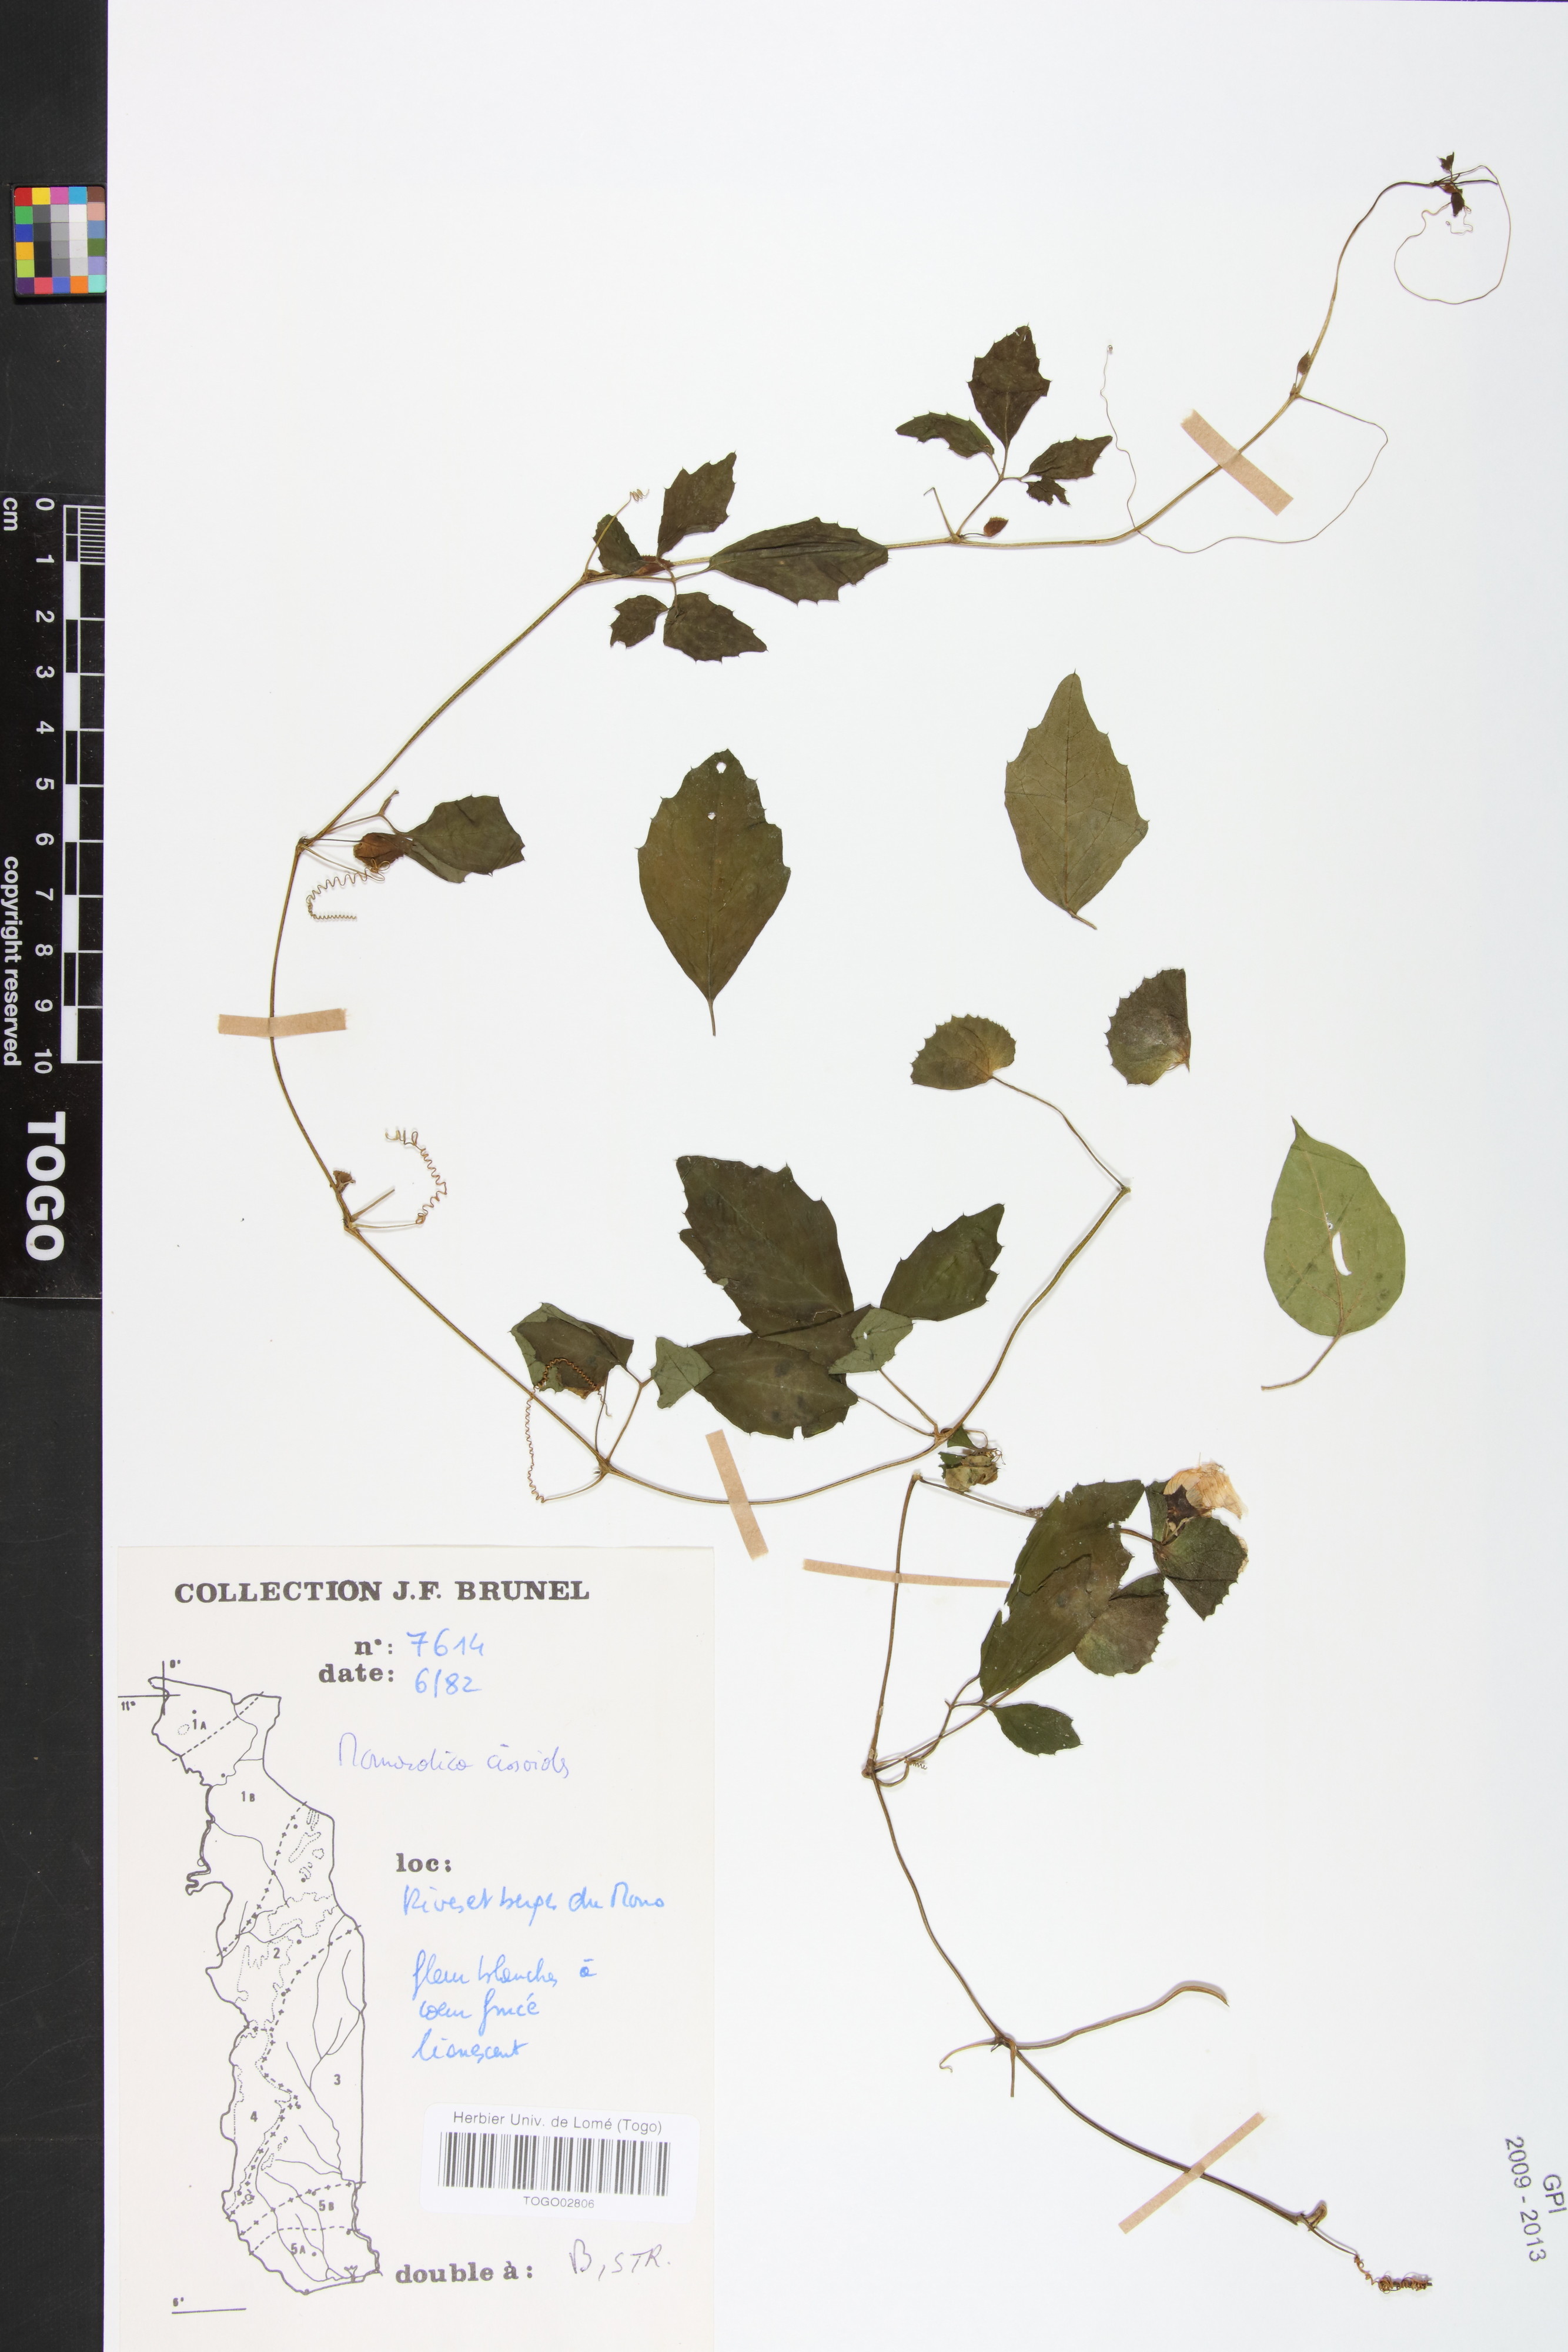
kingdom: Plantae
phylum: Tracheophyta
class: Magnoliopsida
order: Cucurbitales
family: Cucurbitaceae
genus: Momordica
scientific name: Momordica cissoides
